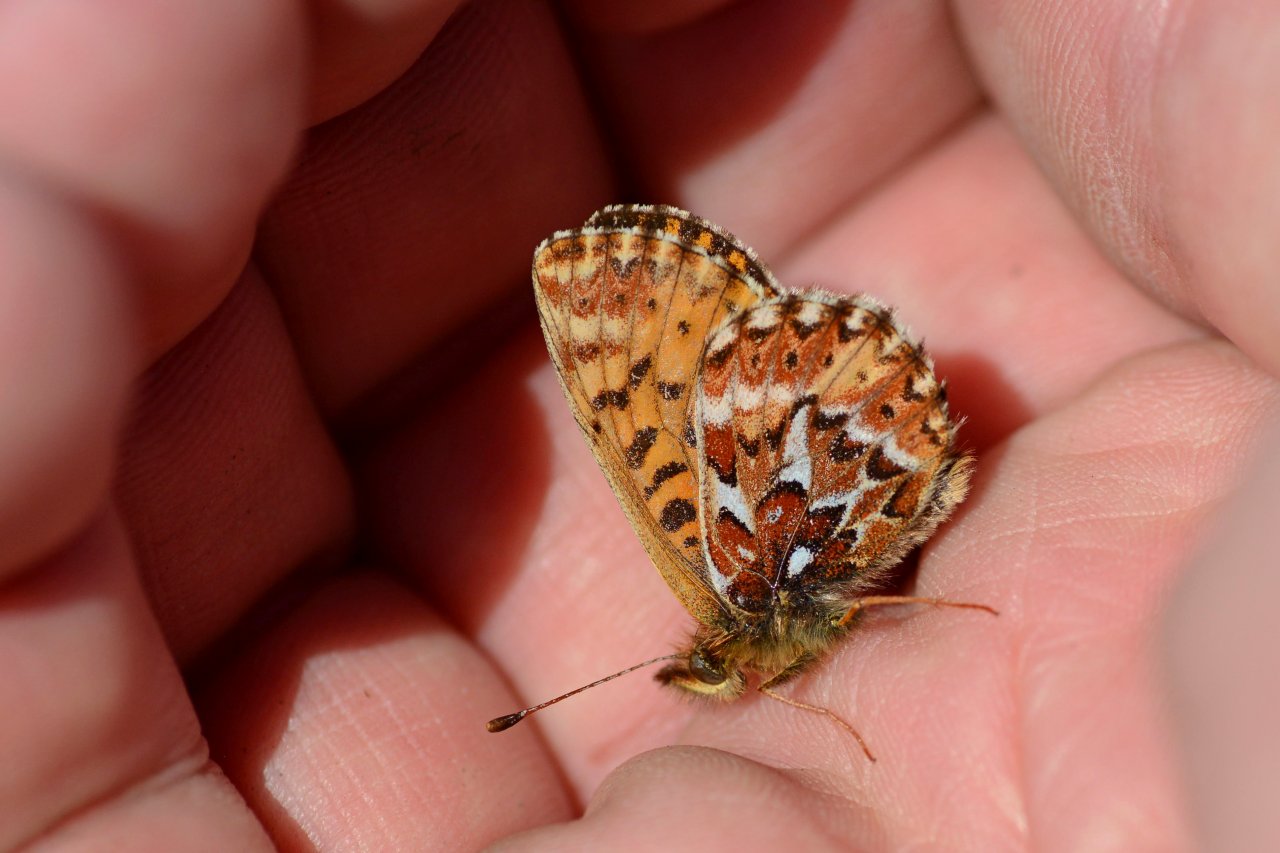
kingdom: Animalia
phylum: Arthropoda
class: Insecta
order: Lepidoptera
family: Nymphalidae
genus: Boloria
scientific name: Boloria freija
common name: Freija Fritillary
